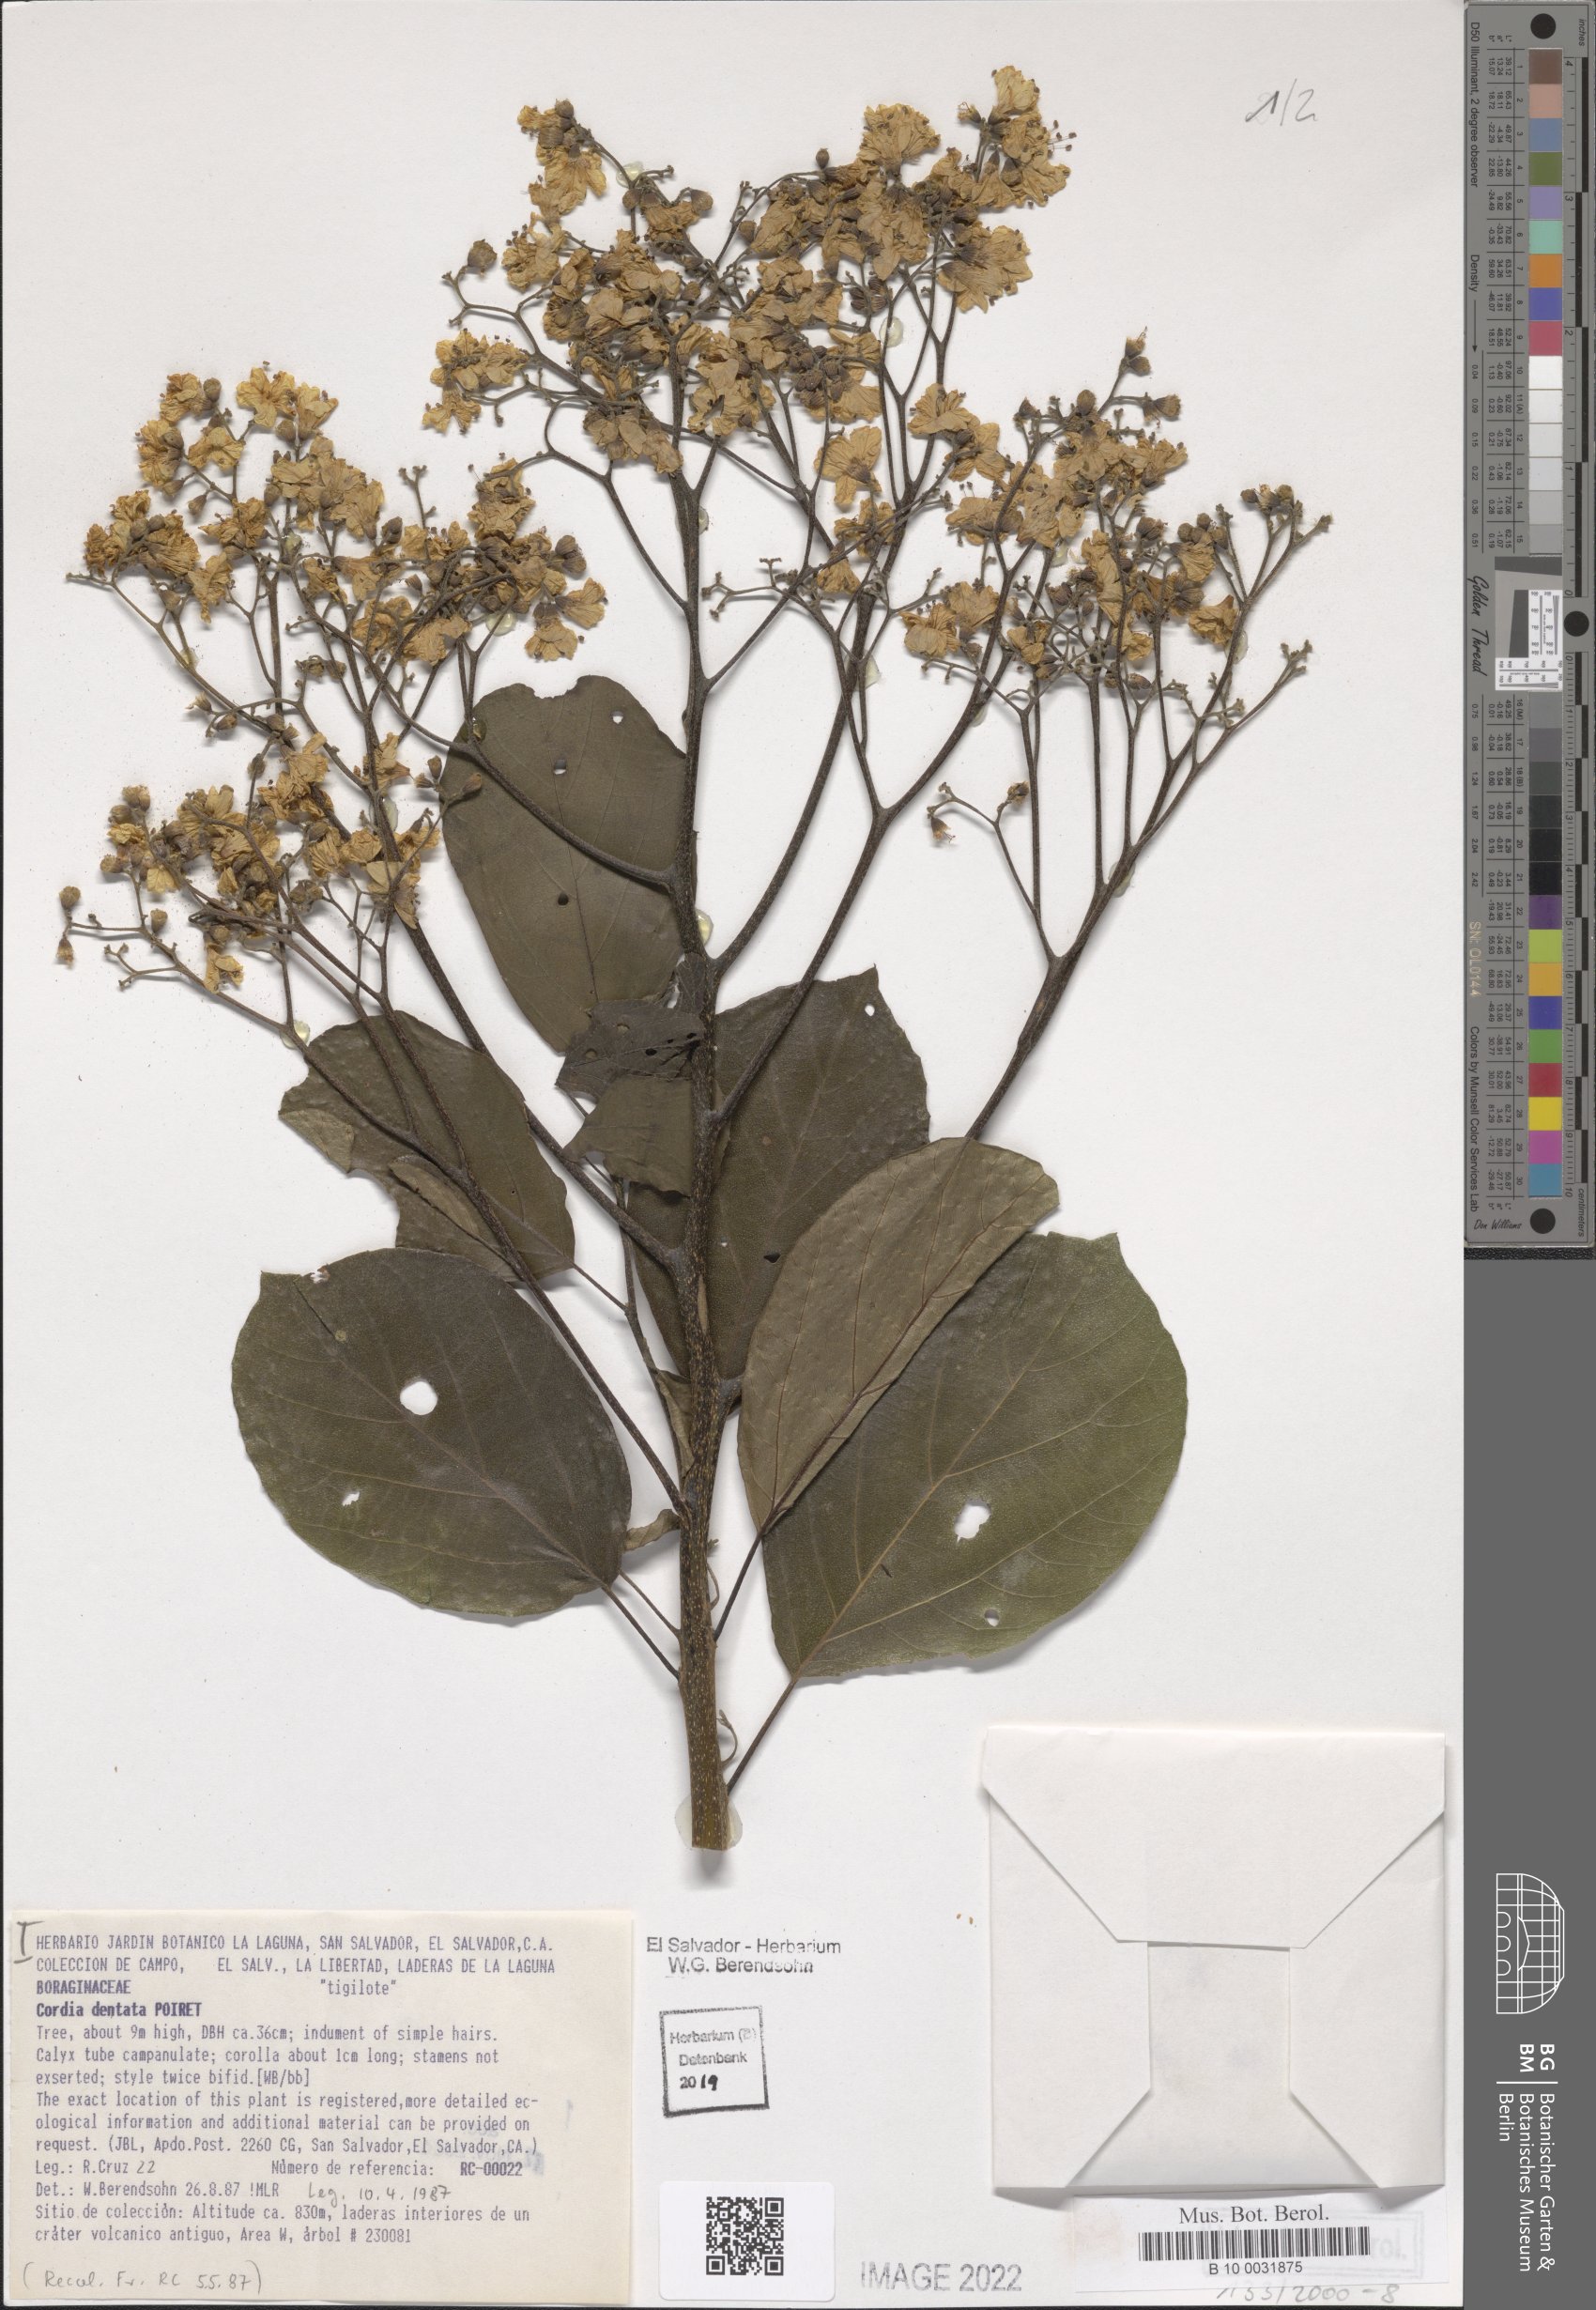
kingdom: Plantae
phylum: Tracheophyta
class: Magnoliopsida
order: Boraginales
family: Cordiaceae
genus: Cordia
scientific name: Cordia dentata
